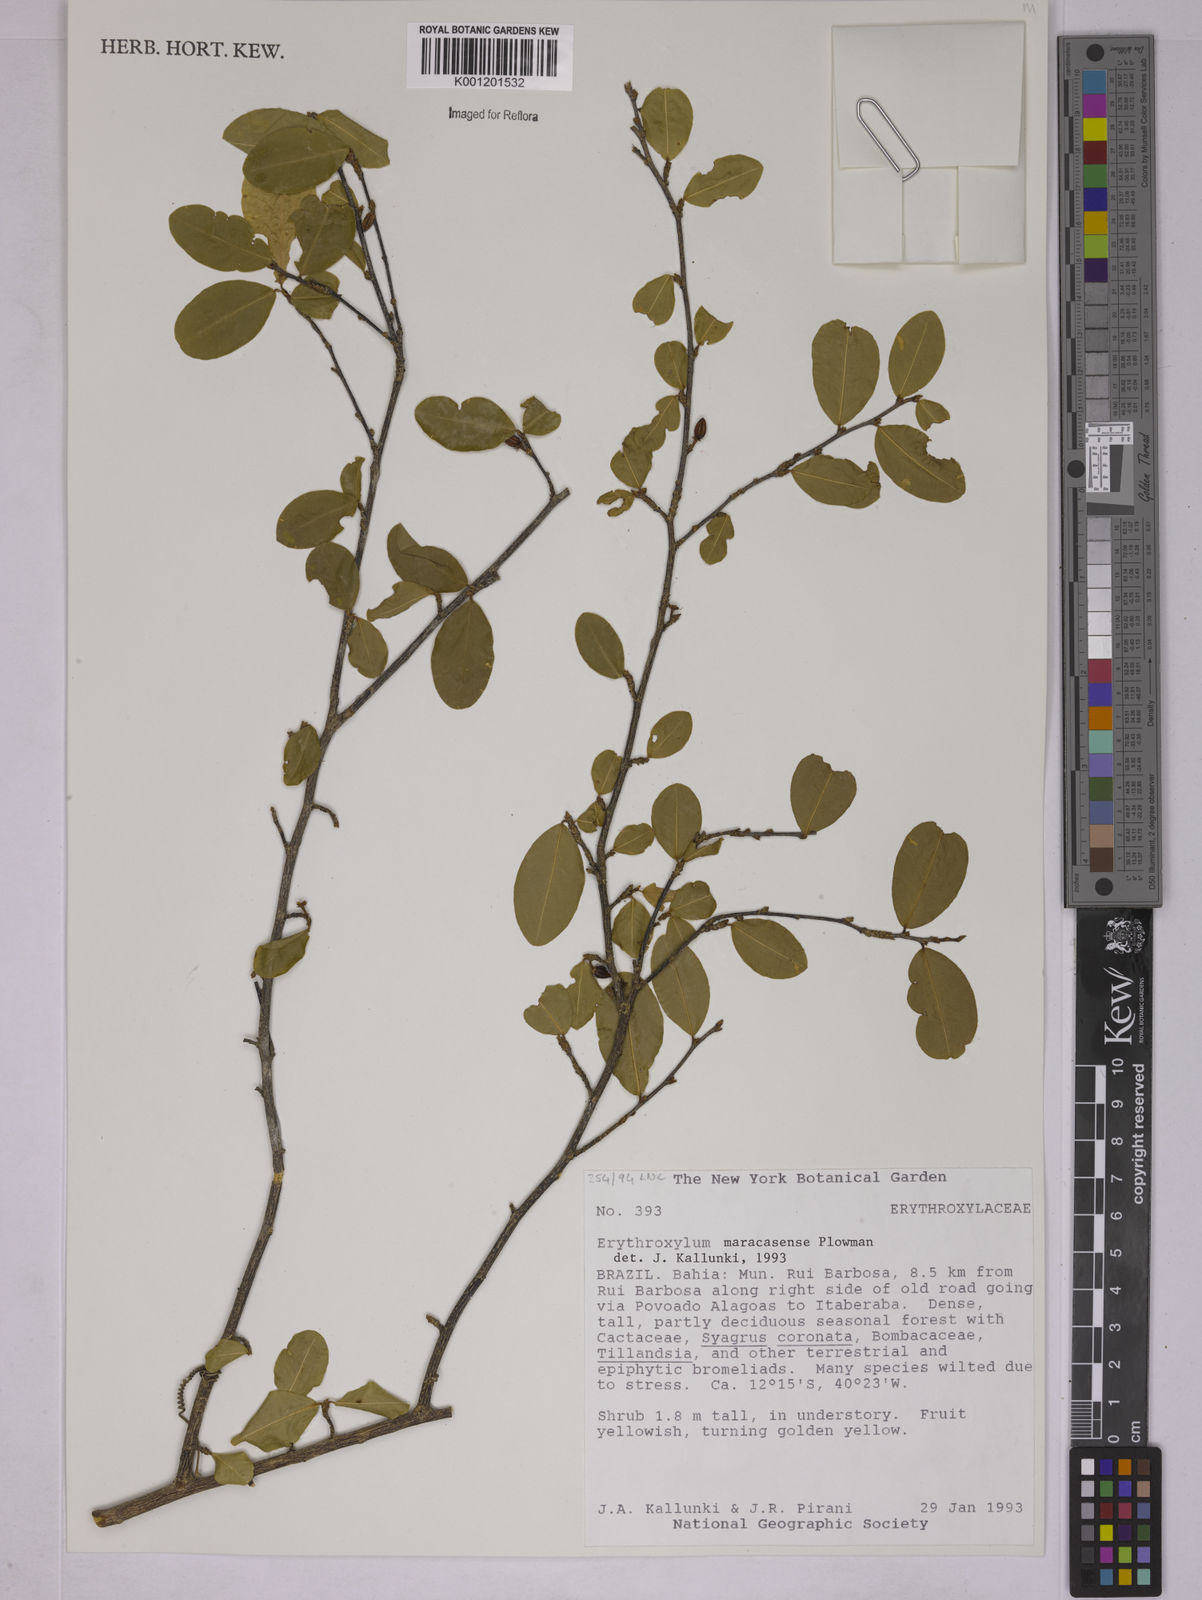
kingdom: Plantae
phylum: Tracheophyta
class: Magnoliopsida
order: Malpighiales
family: Erythroxylaceae
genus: Erythroxylum
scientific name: Erythroxylum maracasense
